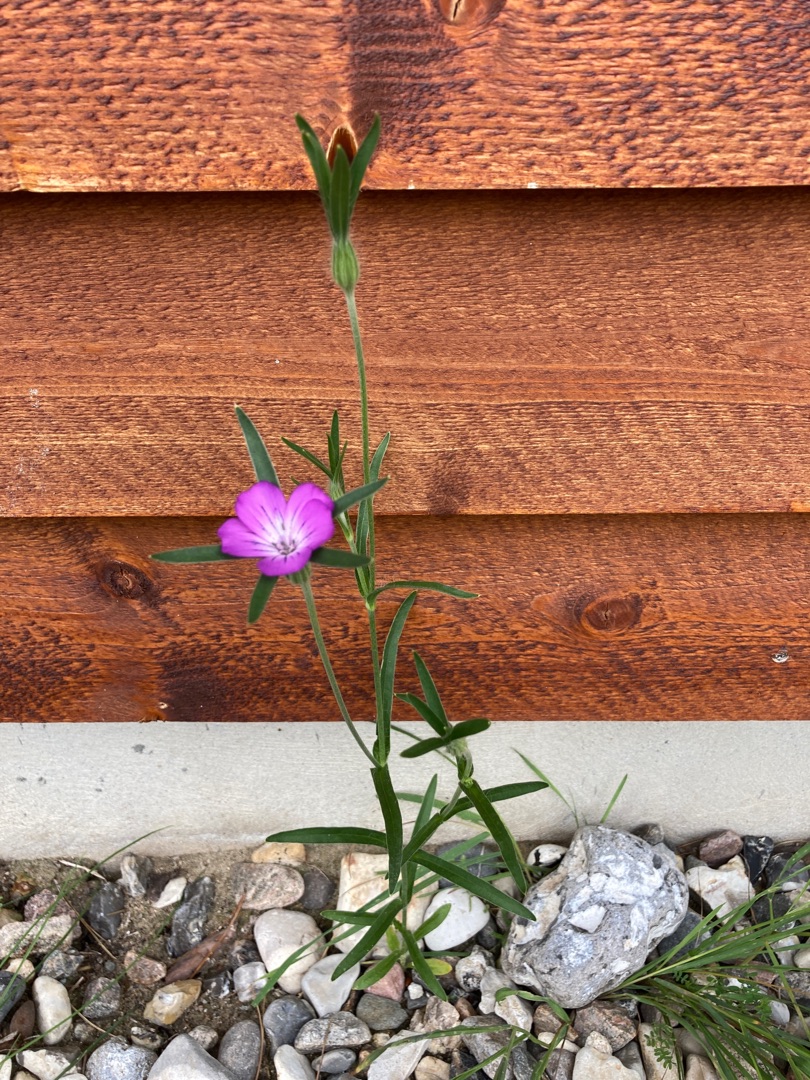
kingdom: Plantae
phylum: Tracheophyta
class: Magnoliopsida
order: Caryophyllales
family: Caryophyllaceae
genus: Agrostemma
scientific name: Agrostemma githago
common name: Klinte
